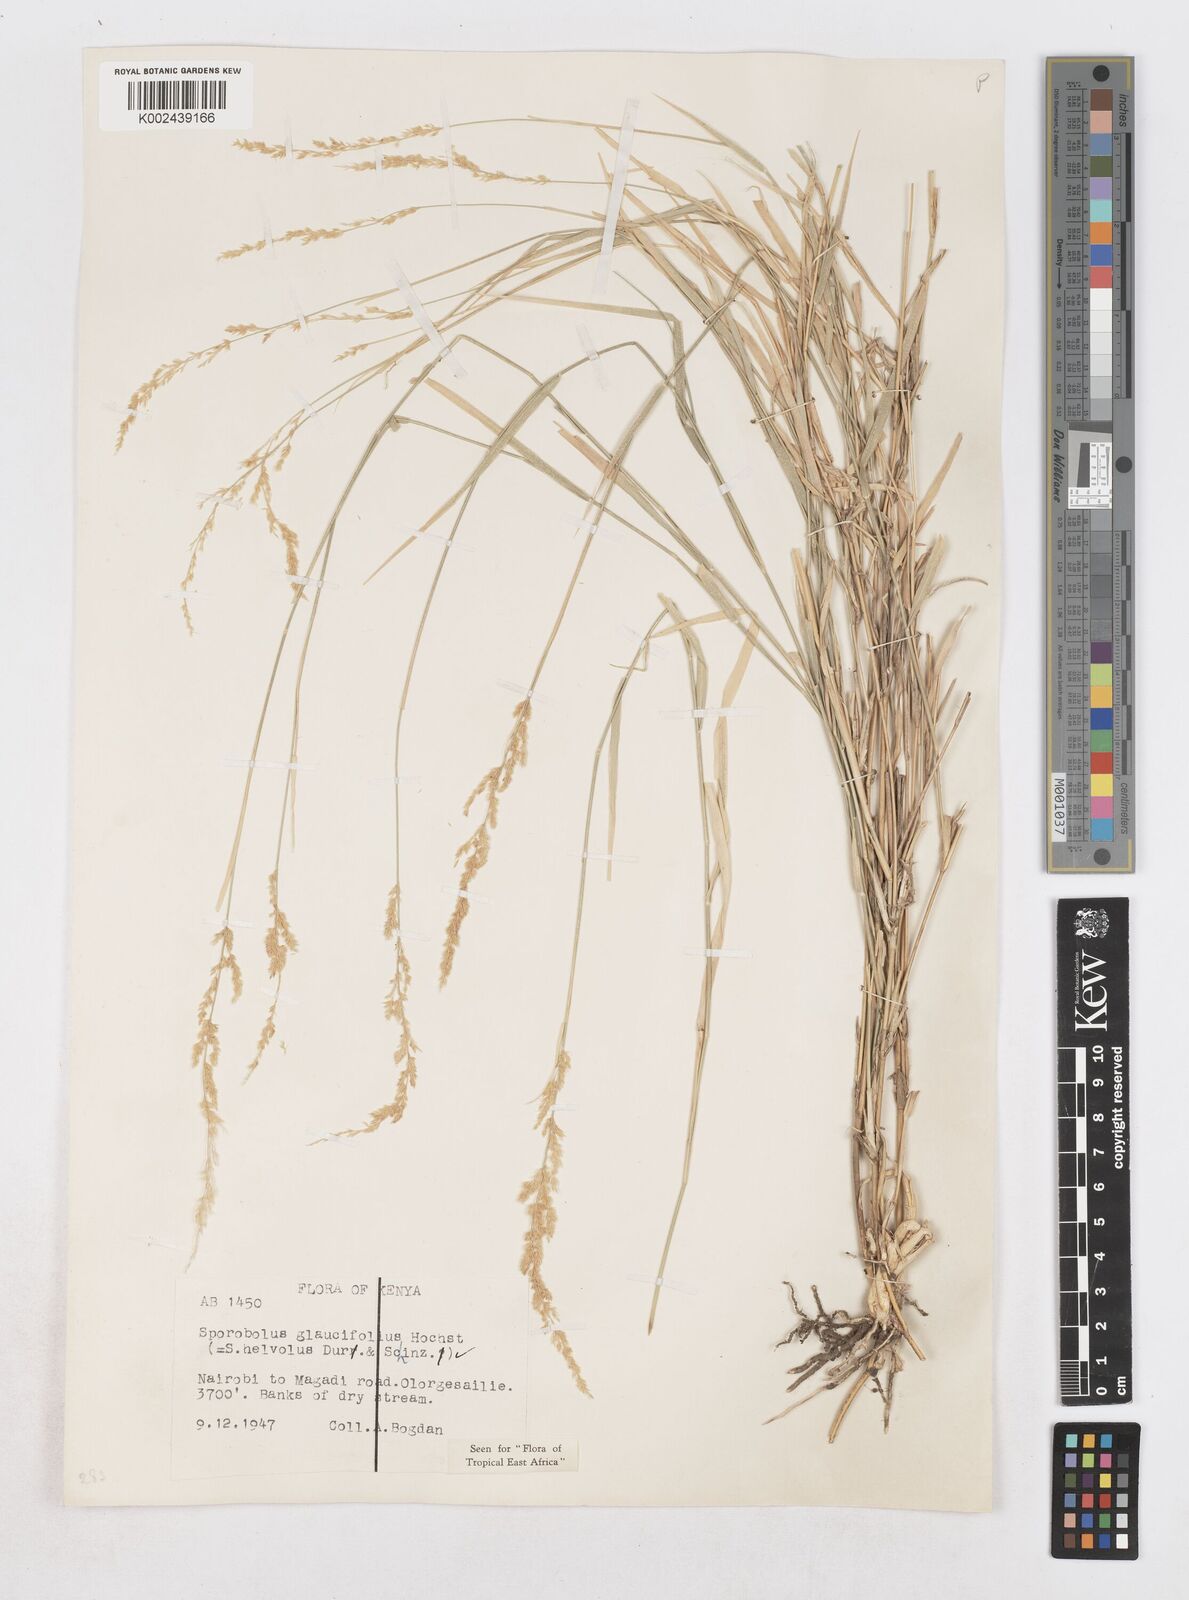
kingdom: Plantae
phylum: Tracheophyta
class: Liliopsida
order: Poales
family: Poaceae
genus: Sporobolus
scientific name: Sporobolus helvolus
